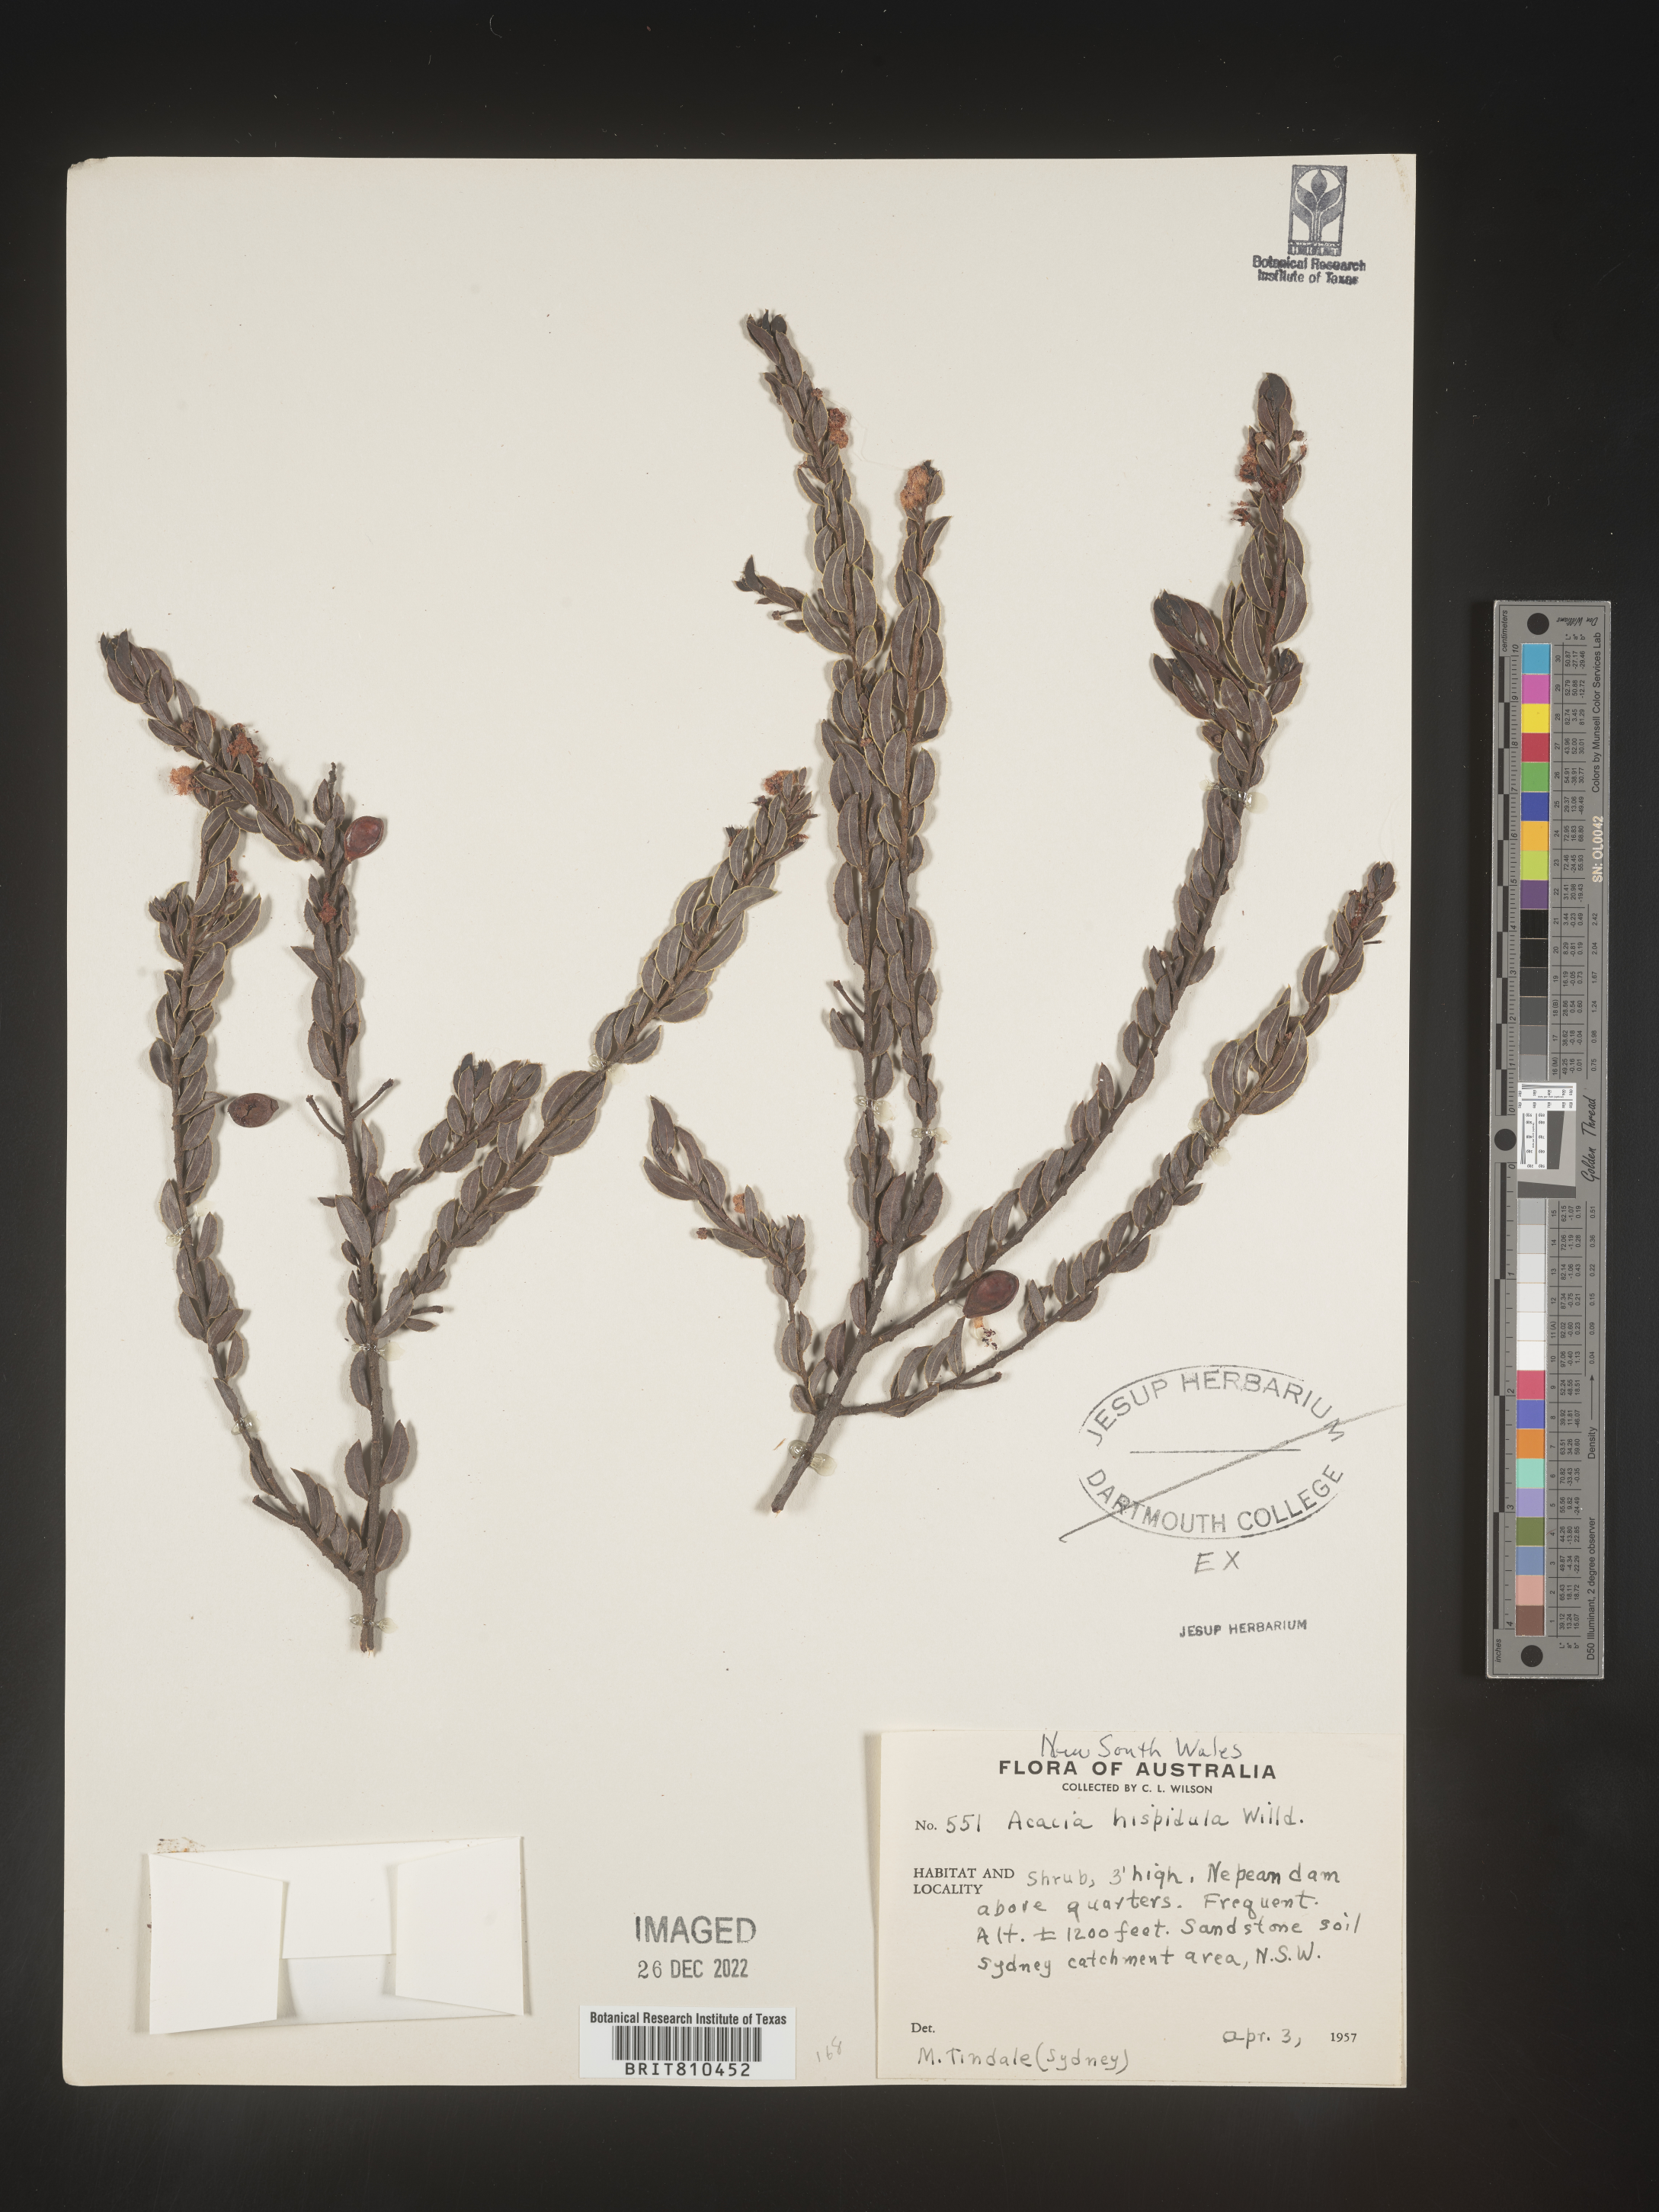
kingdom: Plantae
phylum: Tracheophyta
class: Magnoliopsida
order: Fabales
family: Fabaceae
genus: Acacia
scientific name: Acacia
